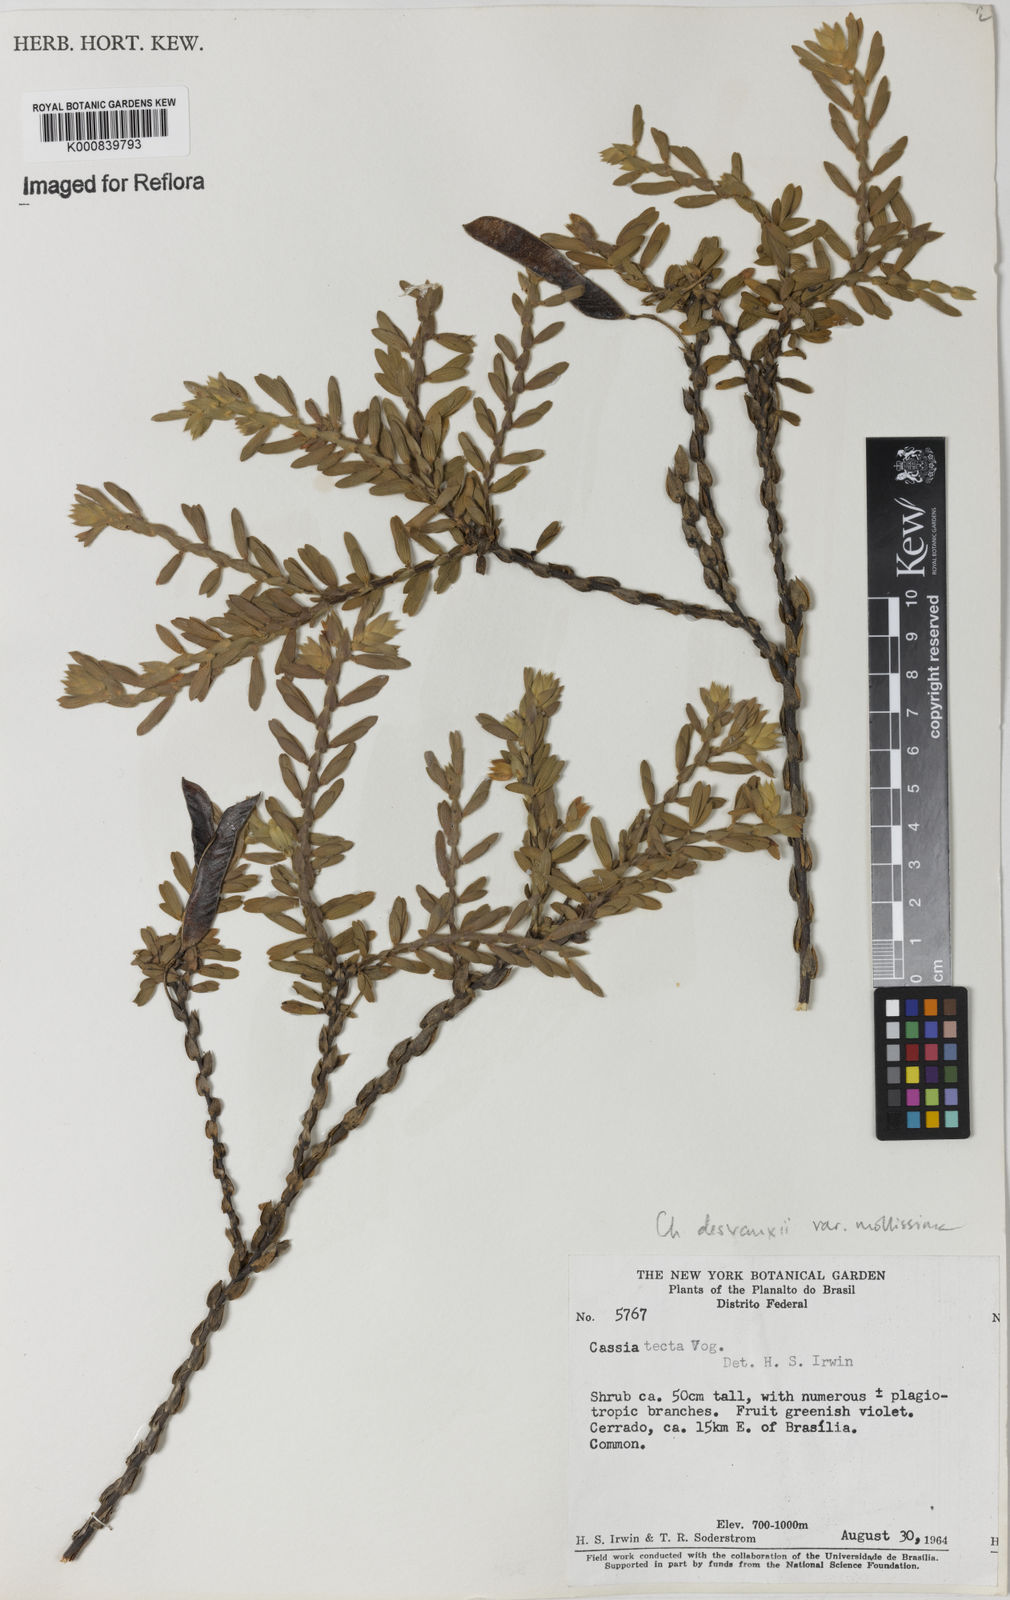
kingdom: Plantae
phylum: Tracheophyta
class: Magnoliopsida
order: Fabales
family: Fabaceae
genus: Chamaecrista
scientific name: Chamaecrista desvauxii
